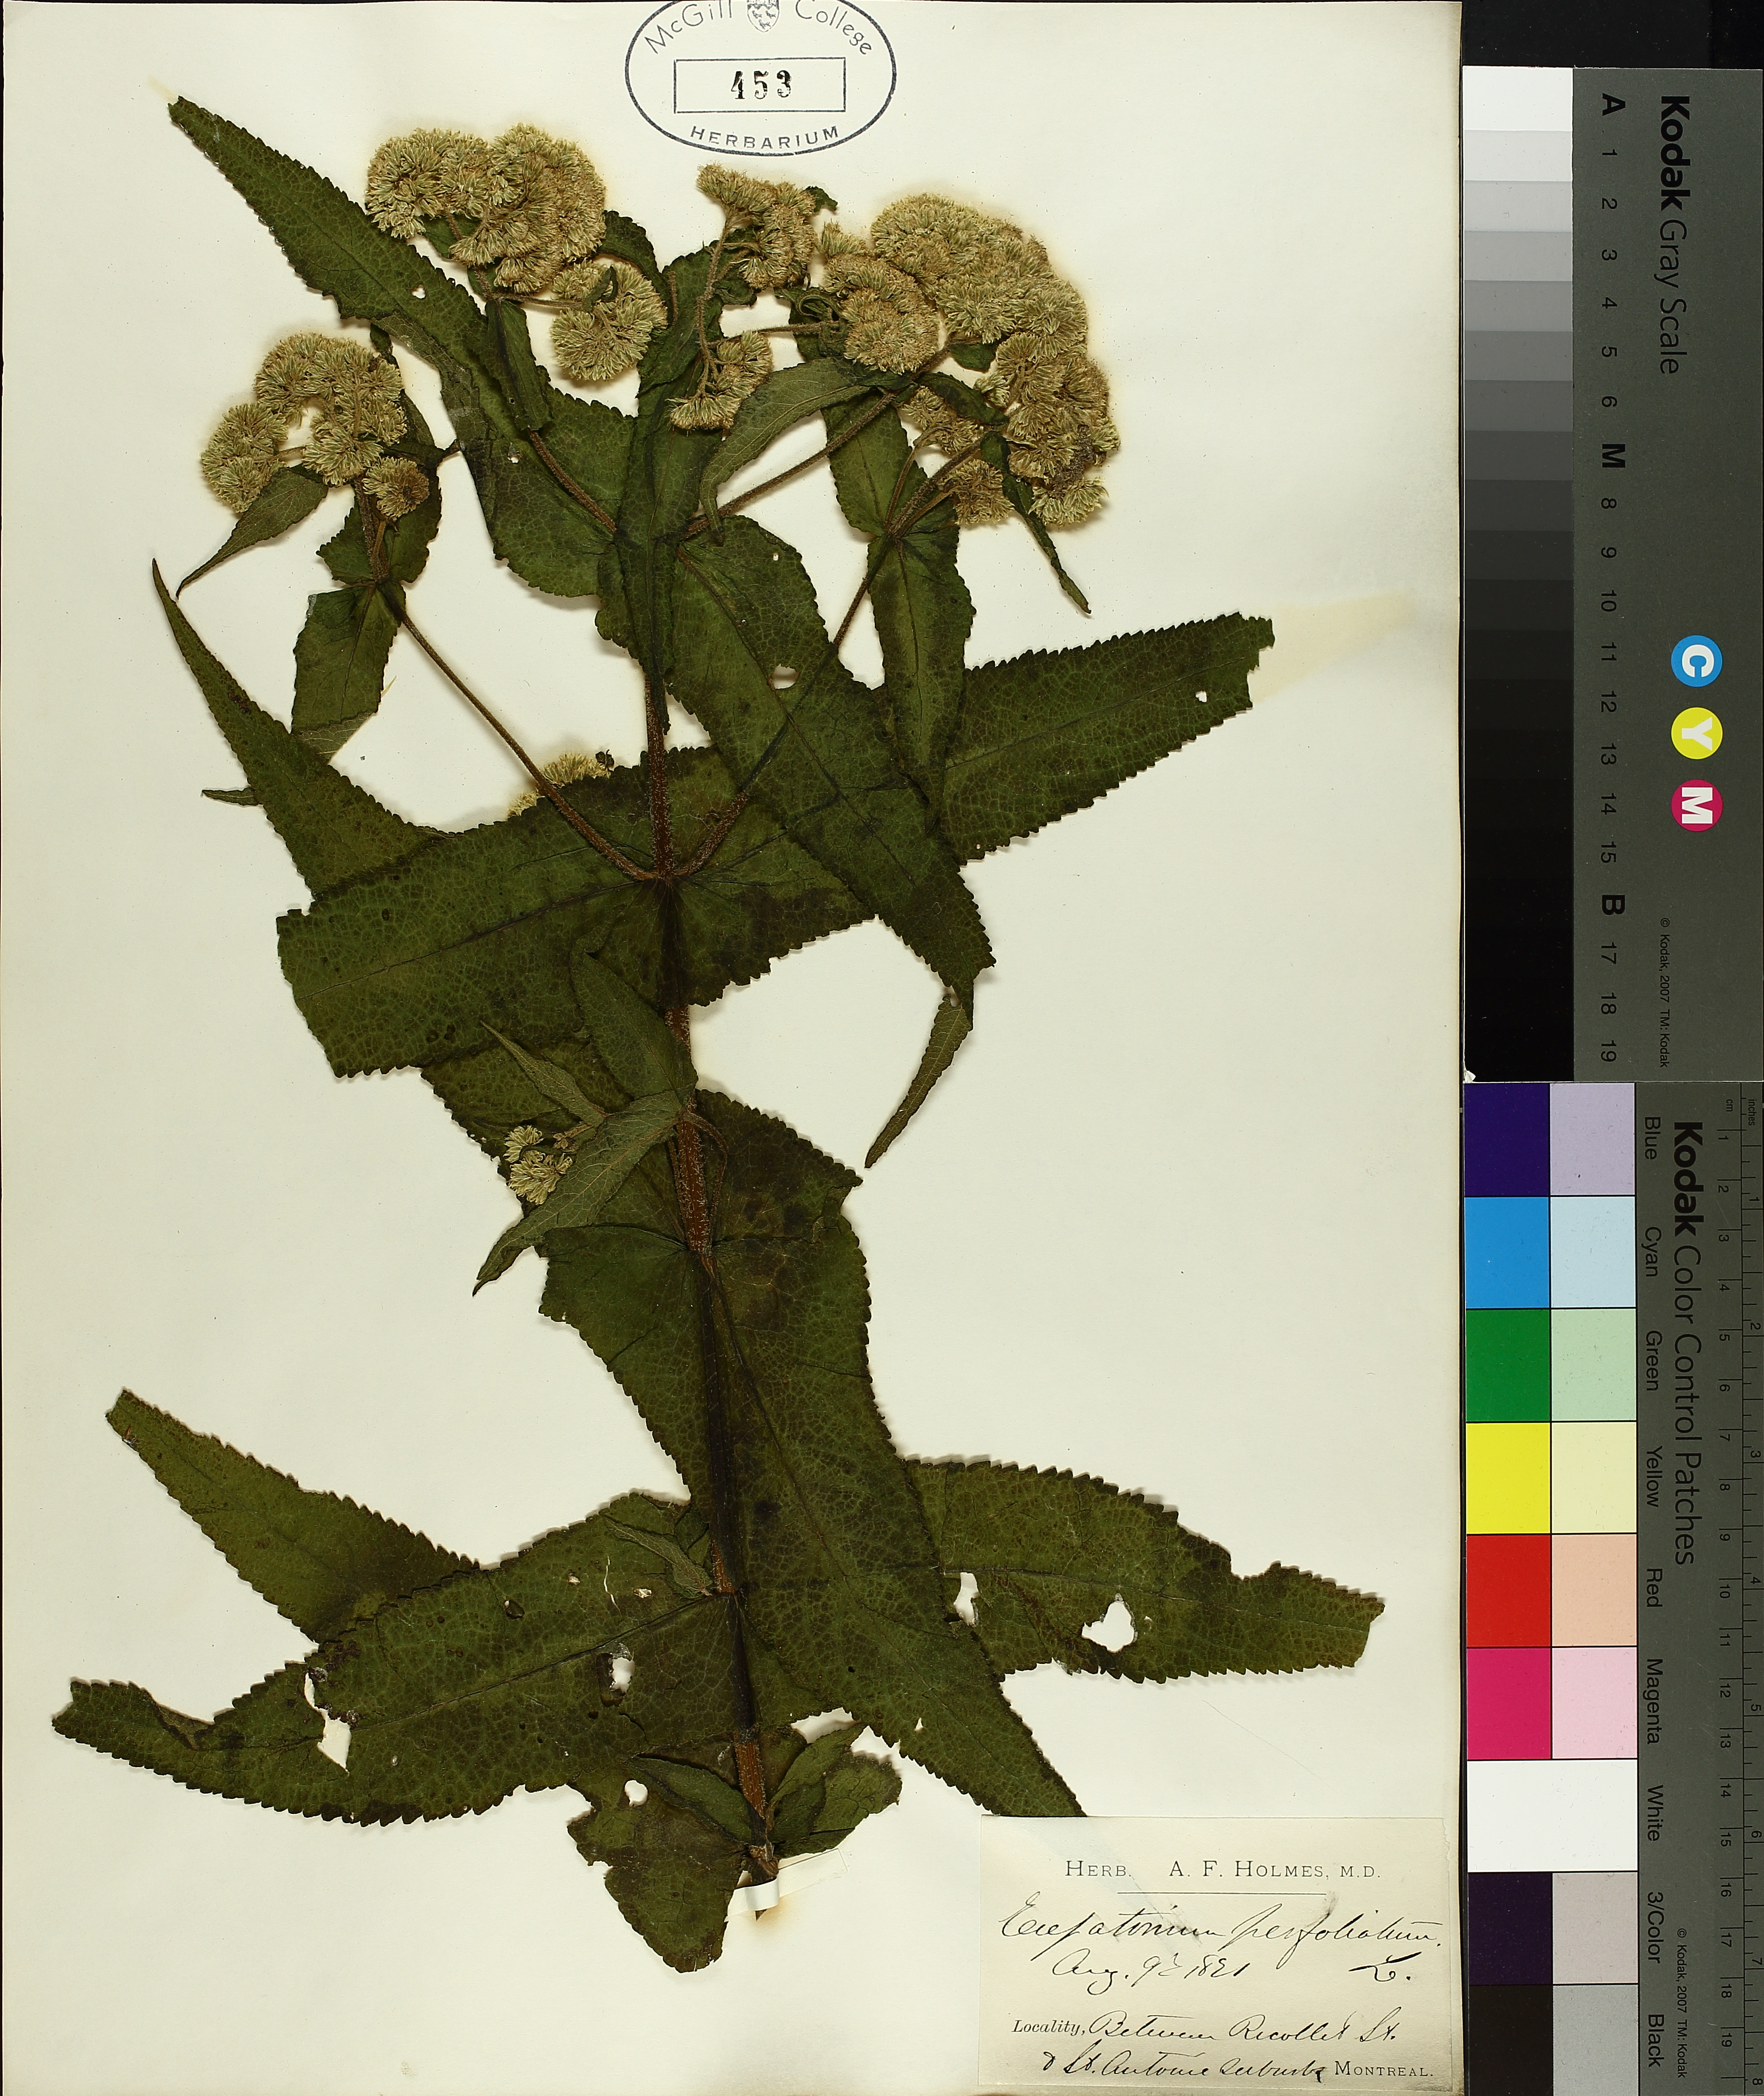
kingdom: Plantae
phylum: Tracheophyta
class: Magnoliopsida
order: Asterales
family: Asteraceae
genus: Eupatorium
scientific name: Eupatorium perfoliatum
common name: Boneset
